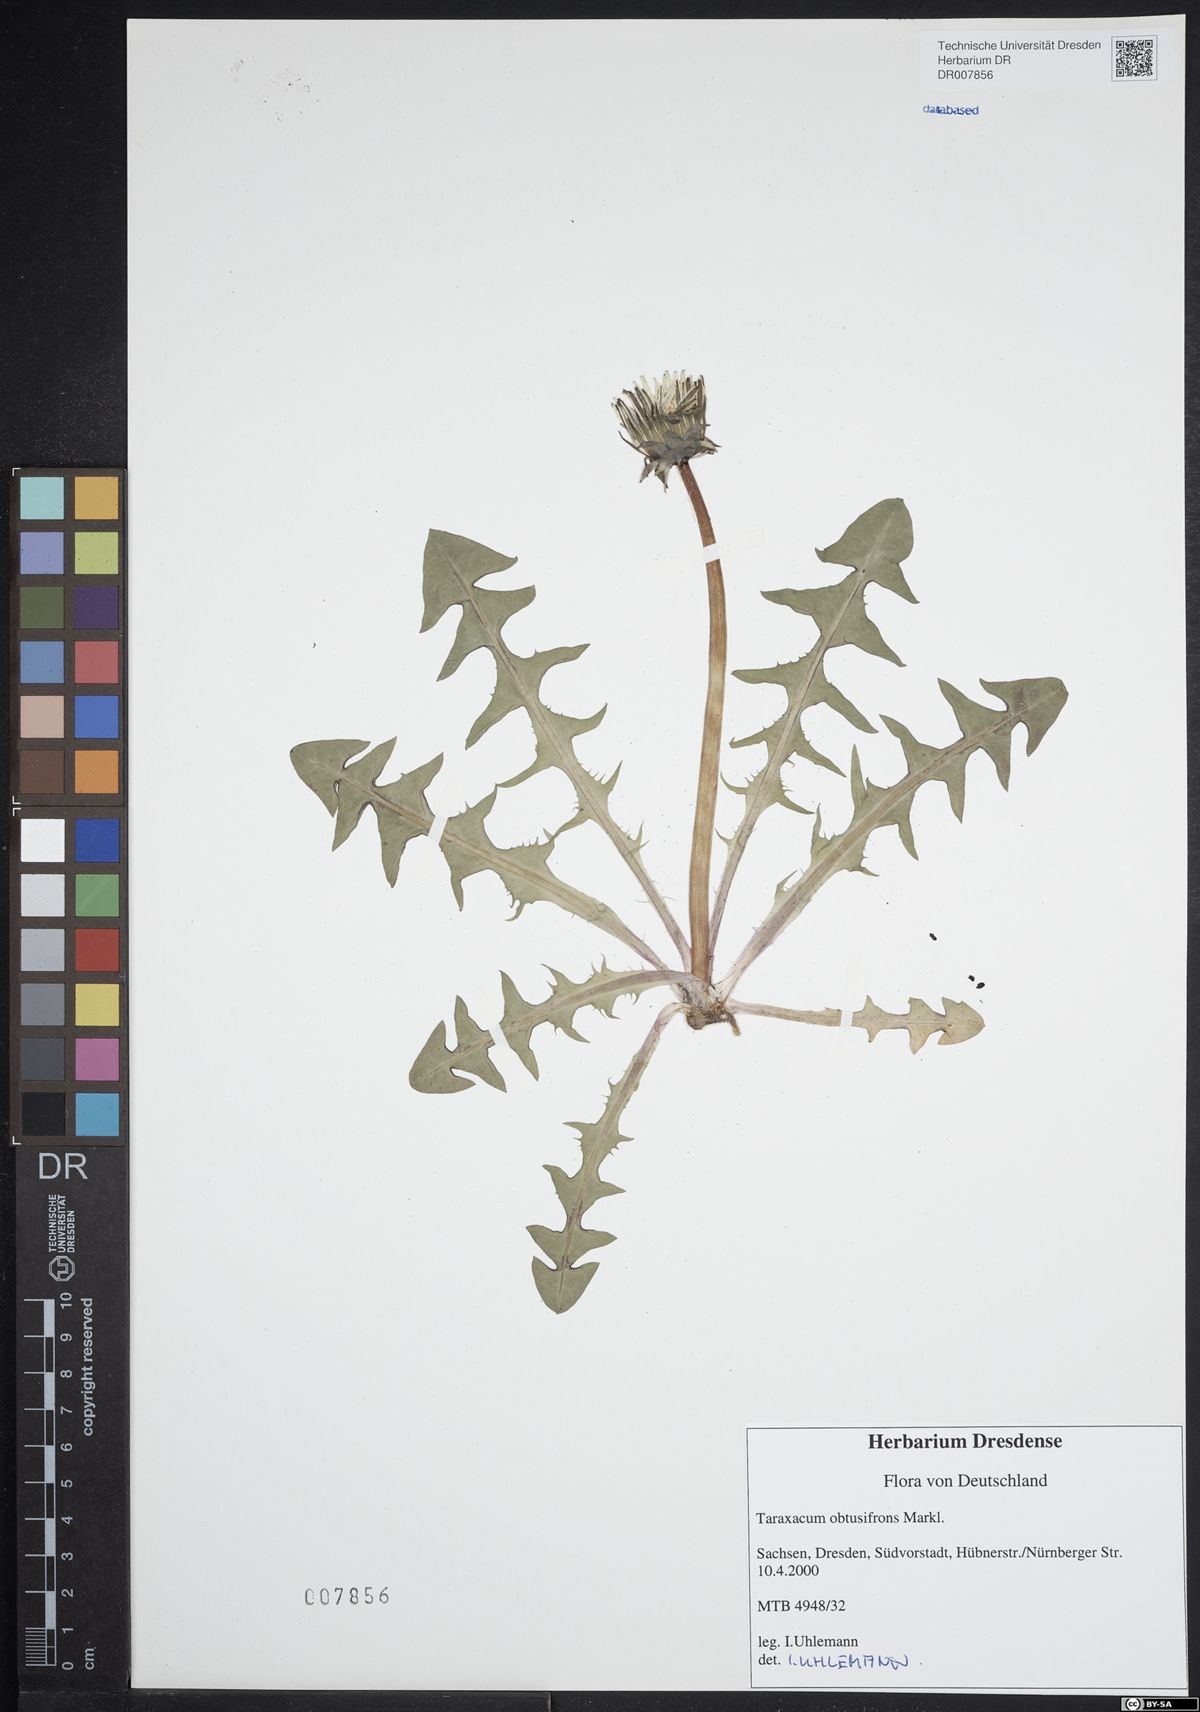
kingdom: Plantae
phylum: Tracheophyta
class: Magnoliopsida
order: Asterales
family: Asteraceae
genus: Taraxacum
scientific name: Taraxacum obtusifrons
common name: Obtuse-leaved dandelion
